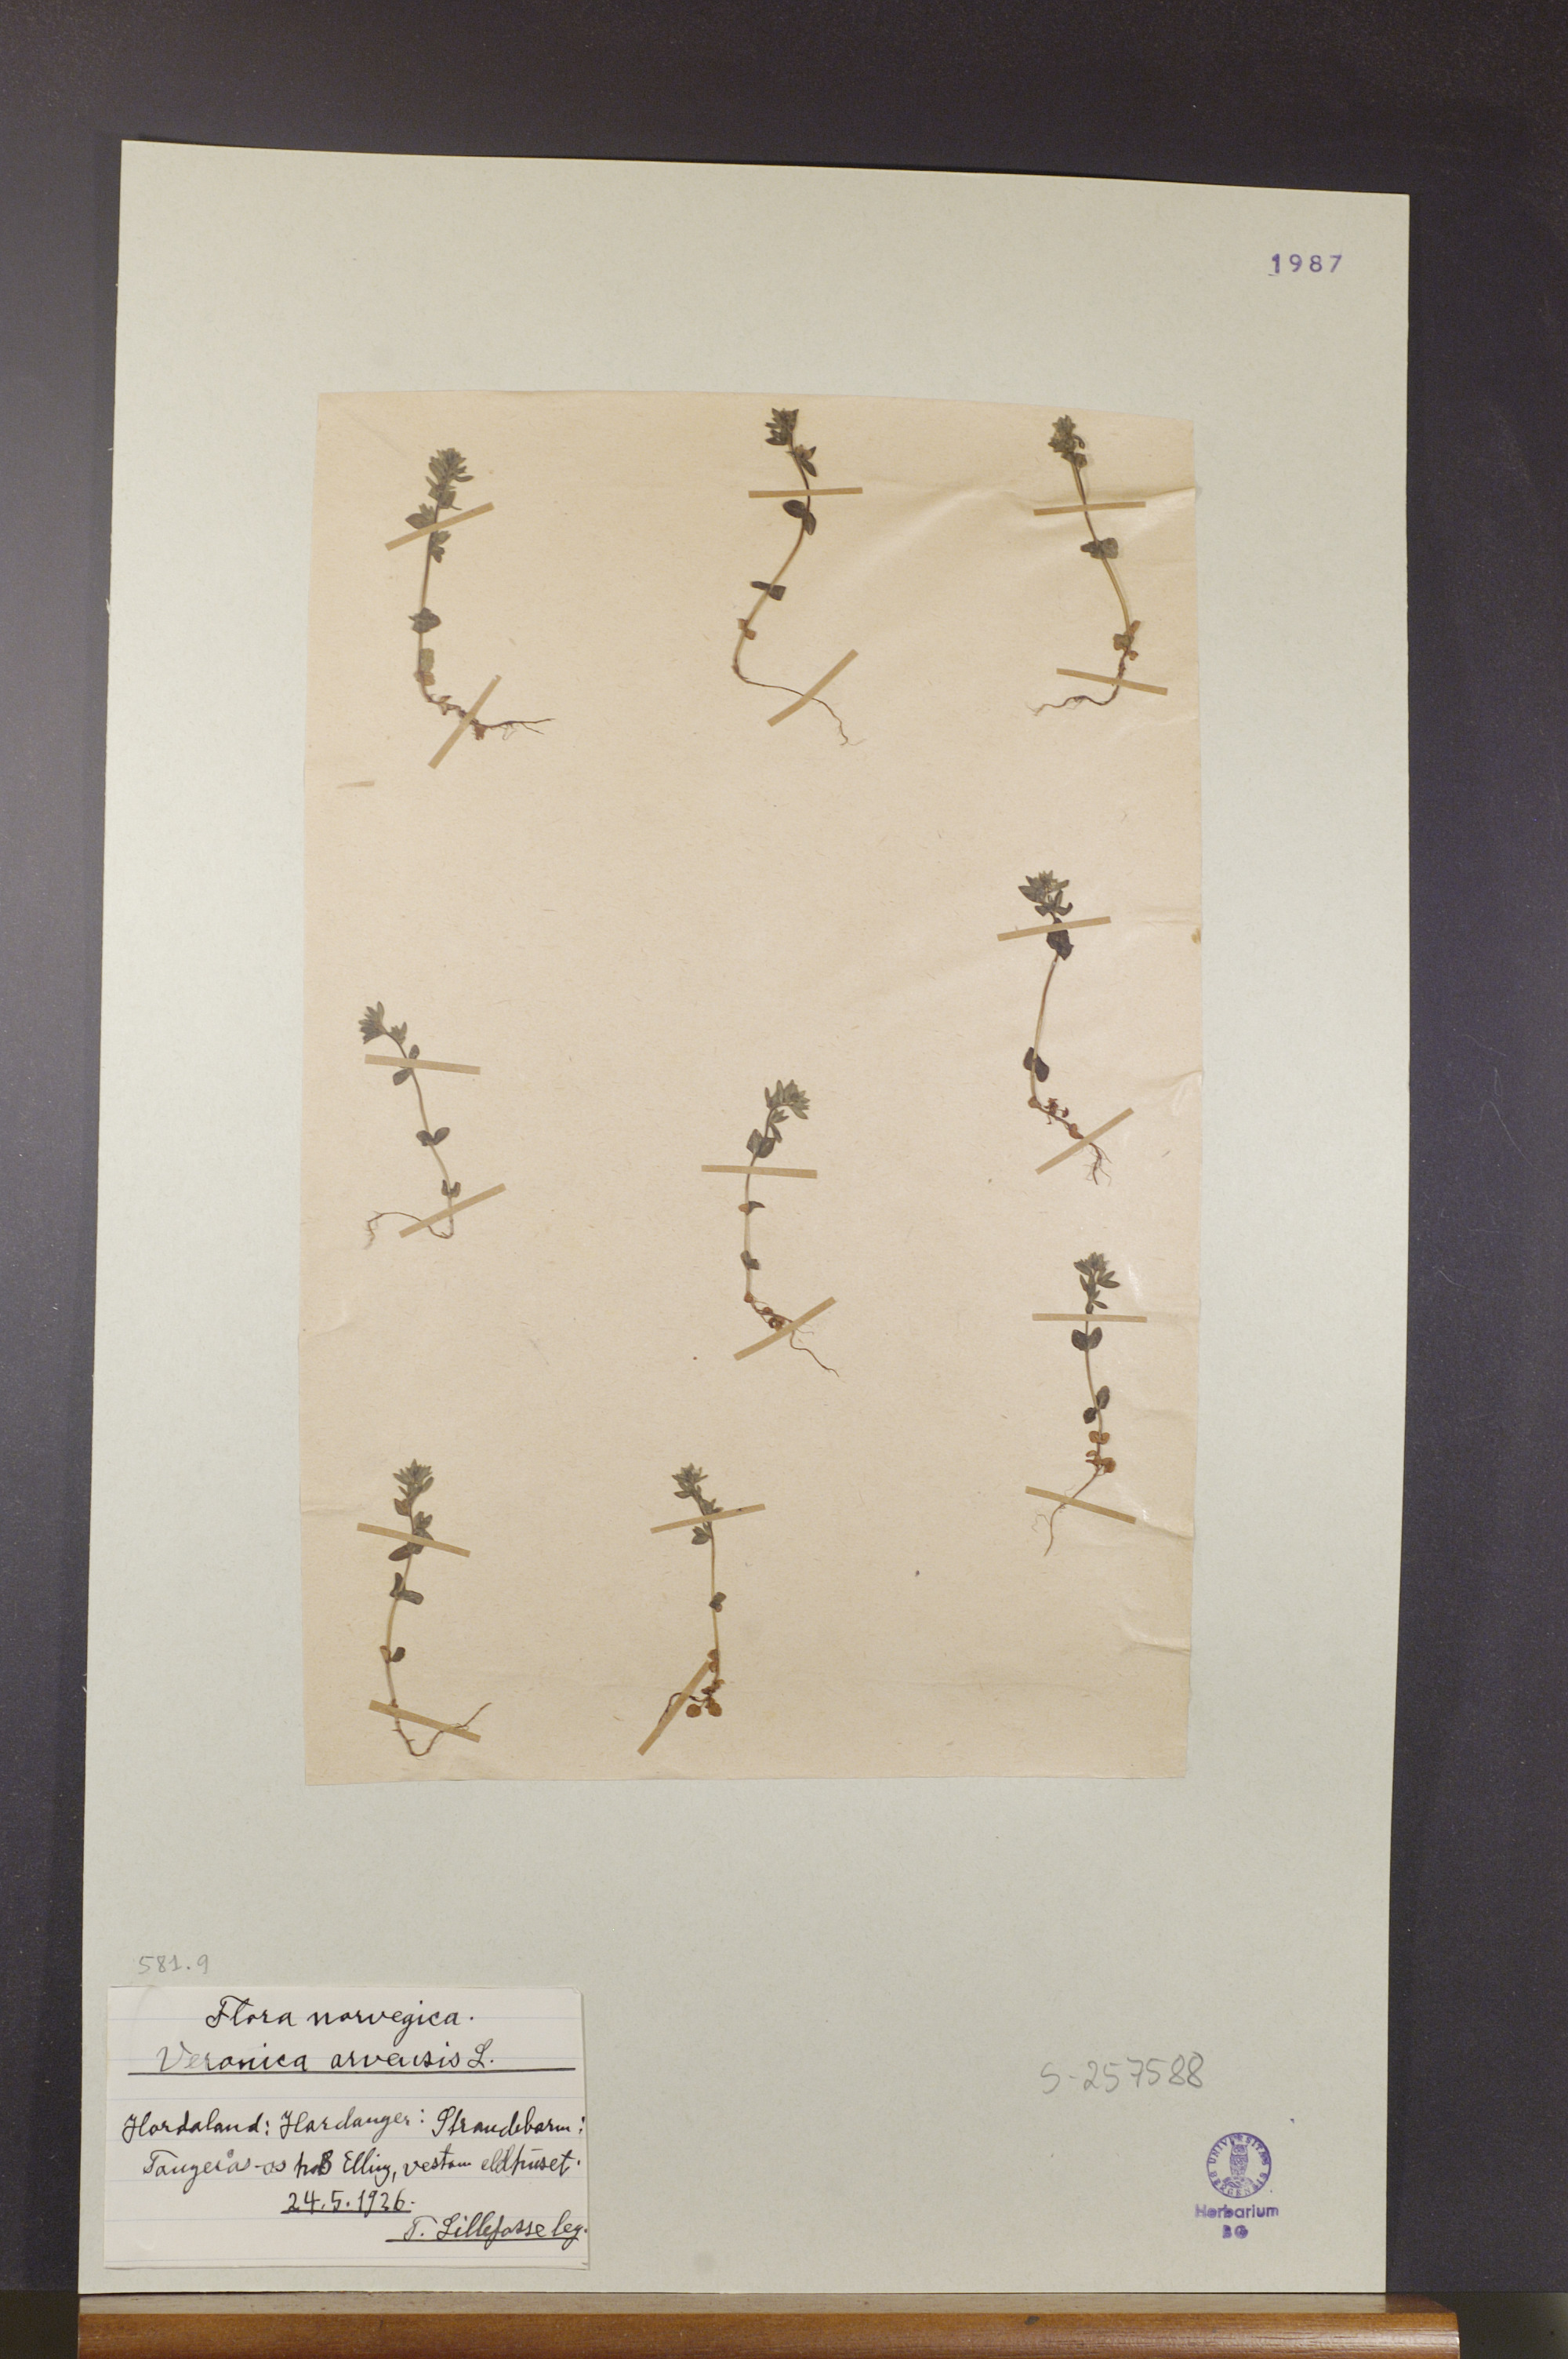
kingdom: Plantae
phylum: Tracheophyta
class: Magnoliopsida
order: Lamiales
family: Plantaginaceae
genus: Veronica
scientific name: Veronica arvensis
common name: Corn speedwell
